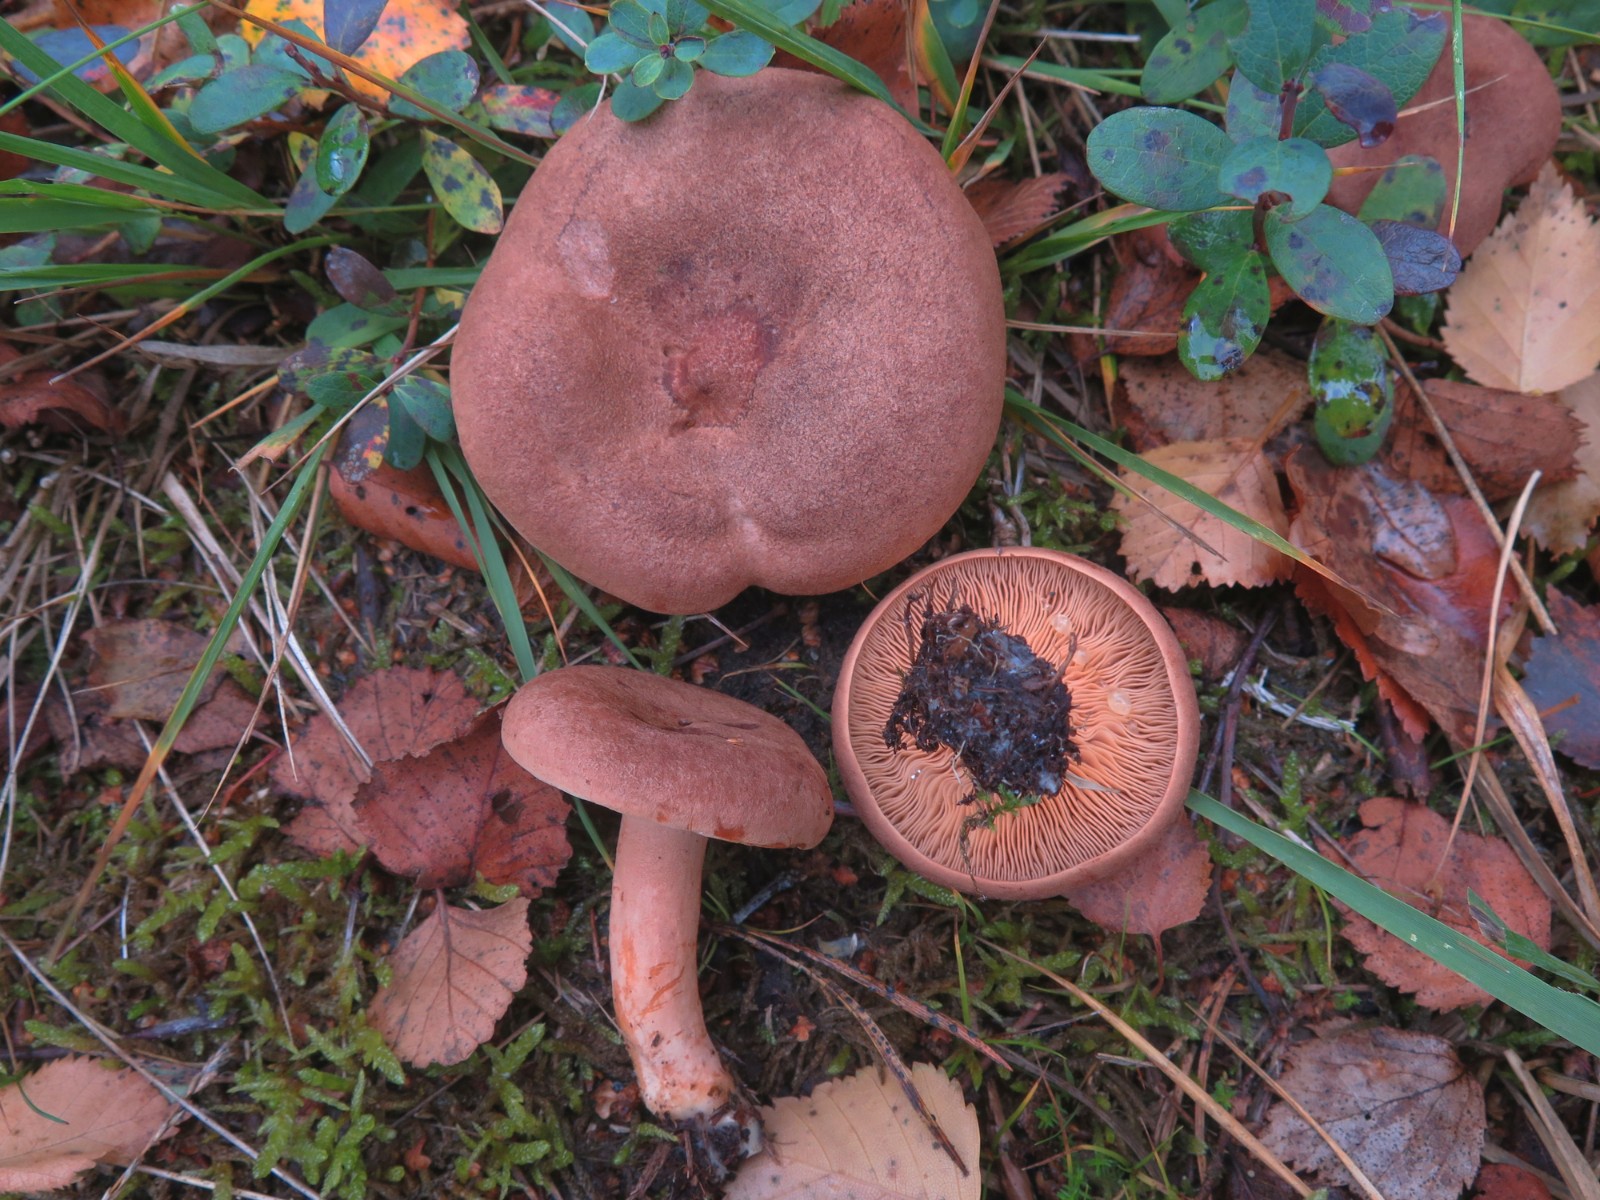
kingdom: Fungi
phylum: Basidiomycota
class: Agaricomycetes
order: Russulales
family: Russulaceae
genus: Lactarius
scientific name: Lactarius helvus
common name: mose-mælkehat
